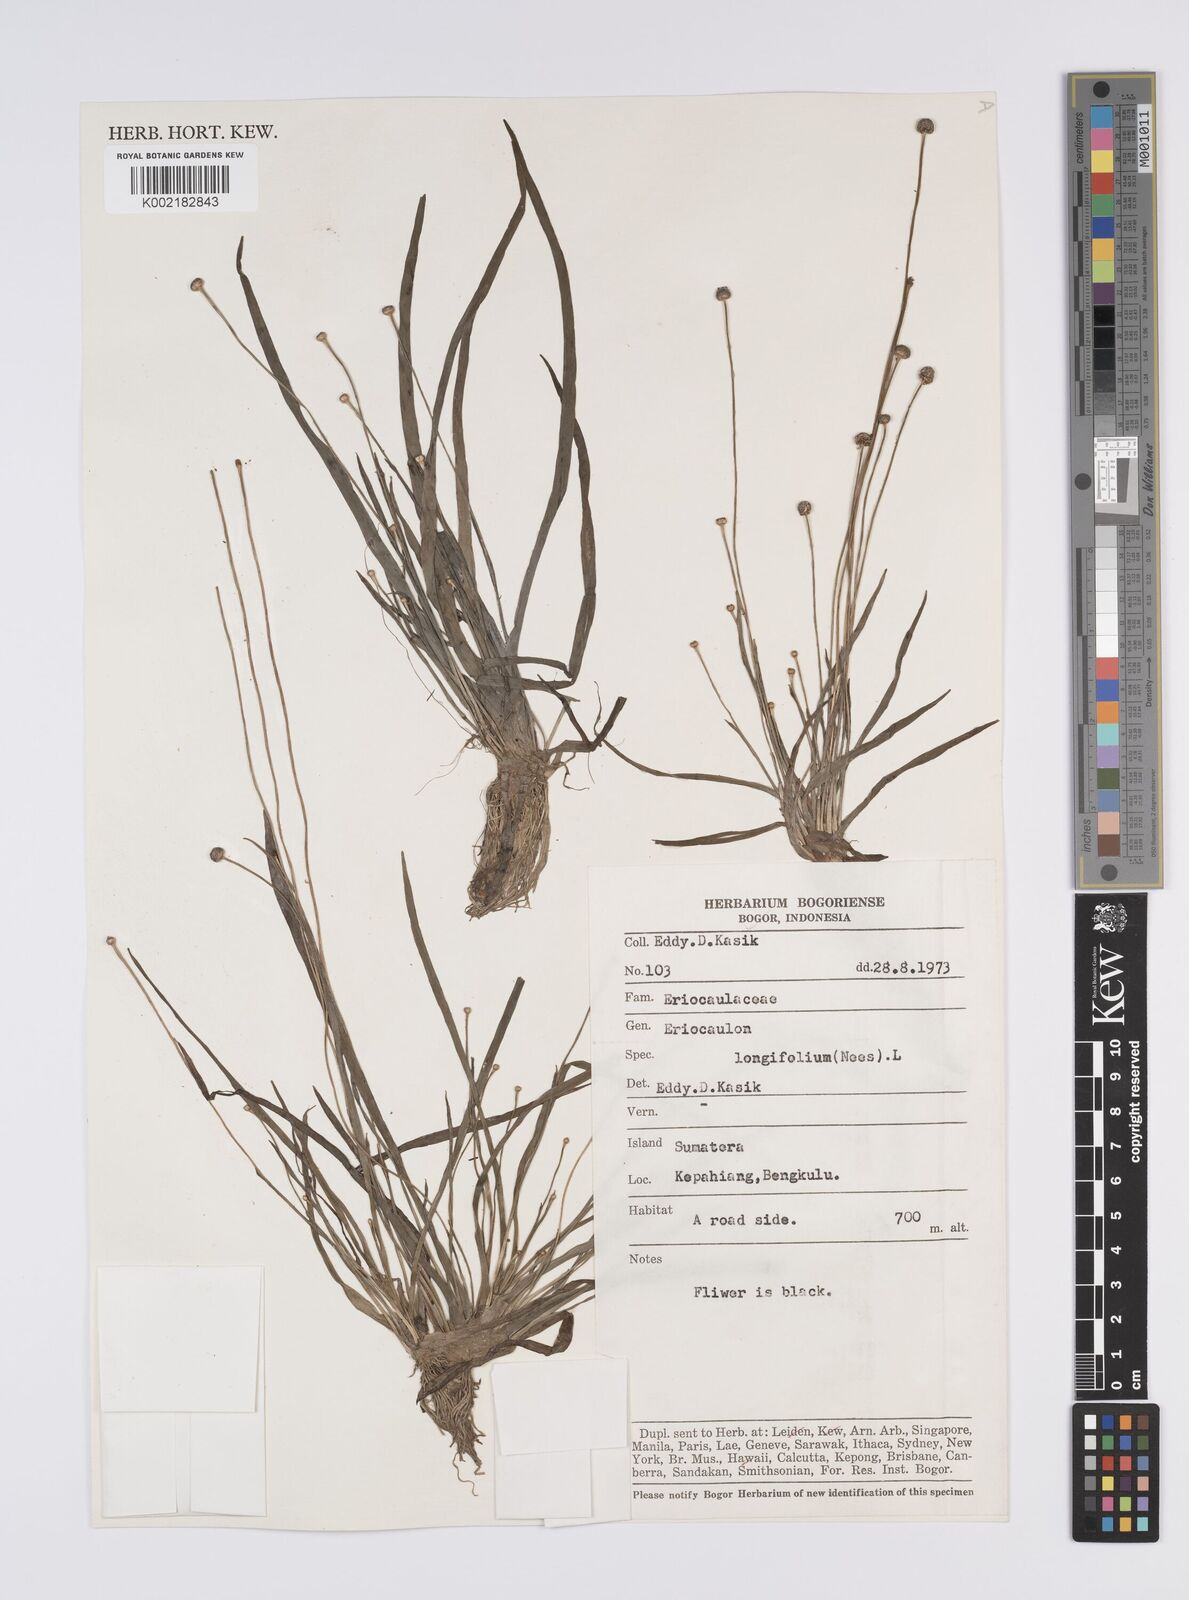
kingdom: Plantae
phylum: Tracheophyta
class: Liliopsida
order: Poales
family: Eriocaulaceae
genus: Eriocaulon
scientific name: Eriocaulon willdenovianum
